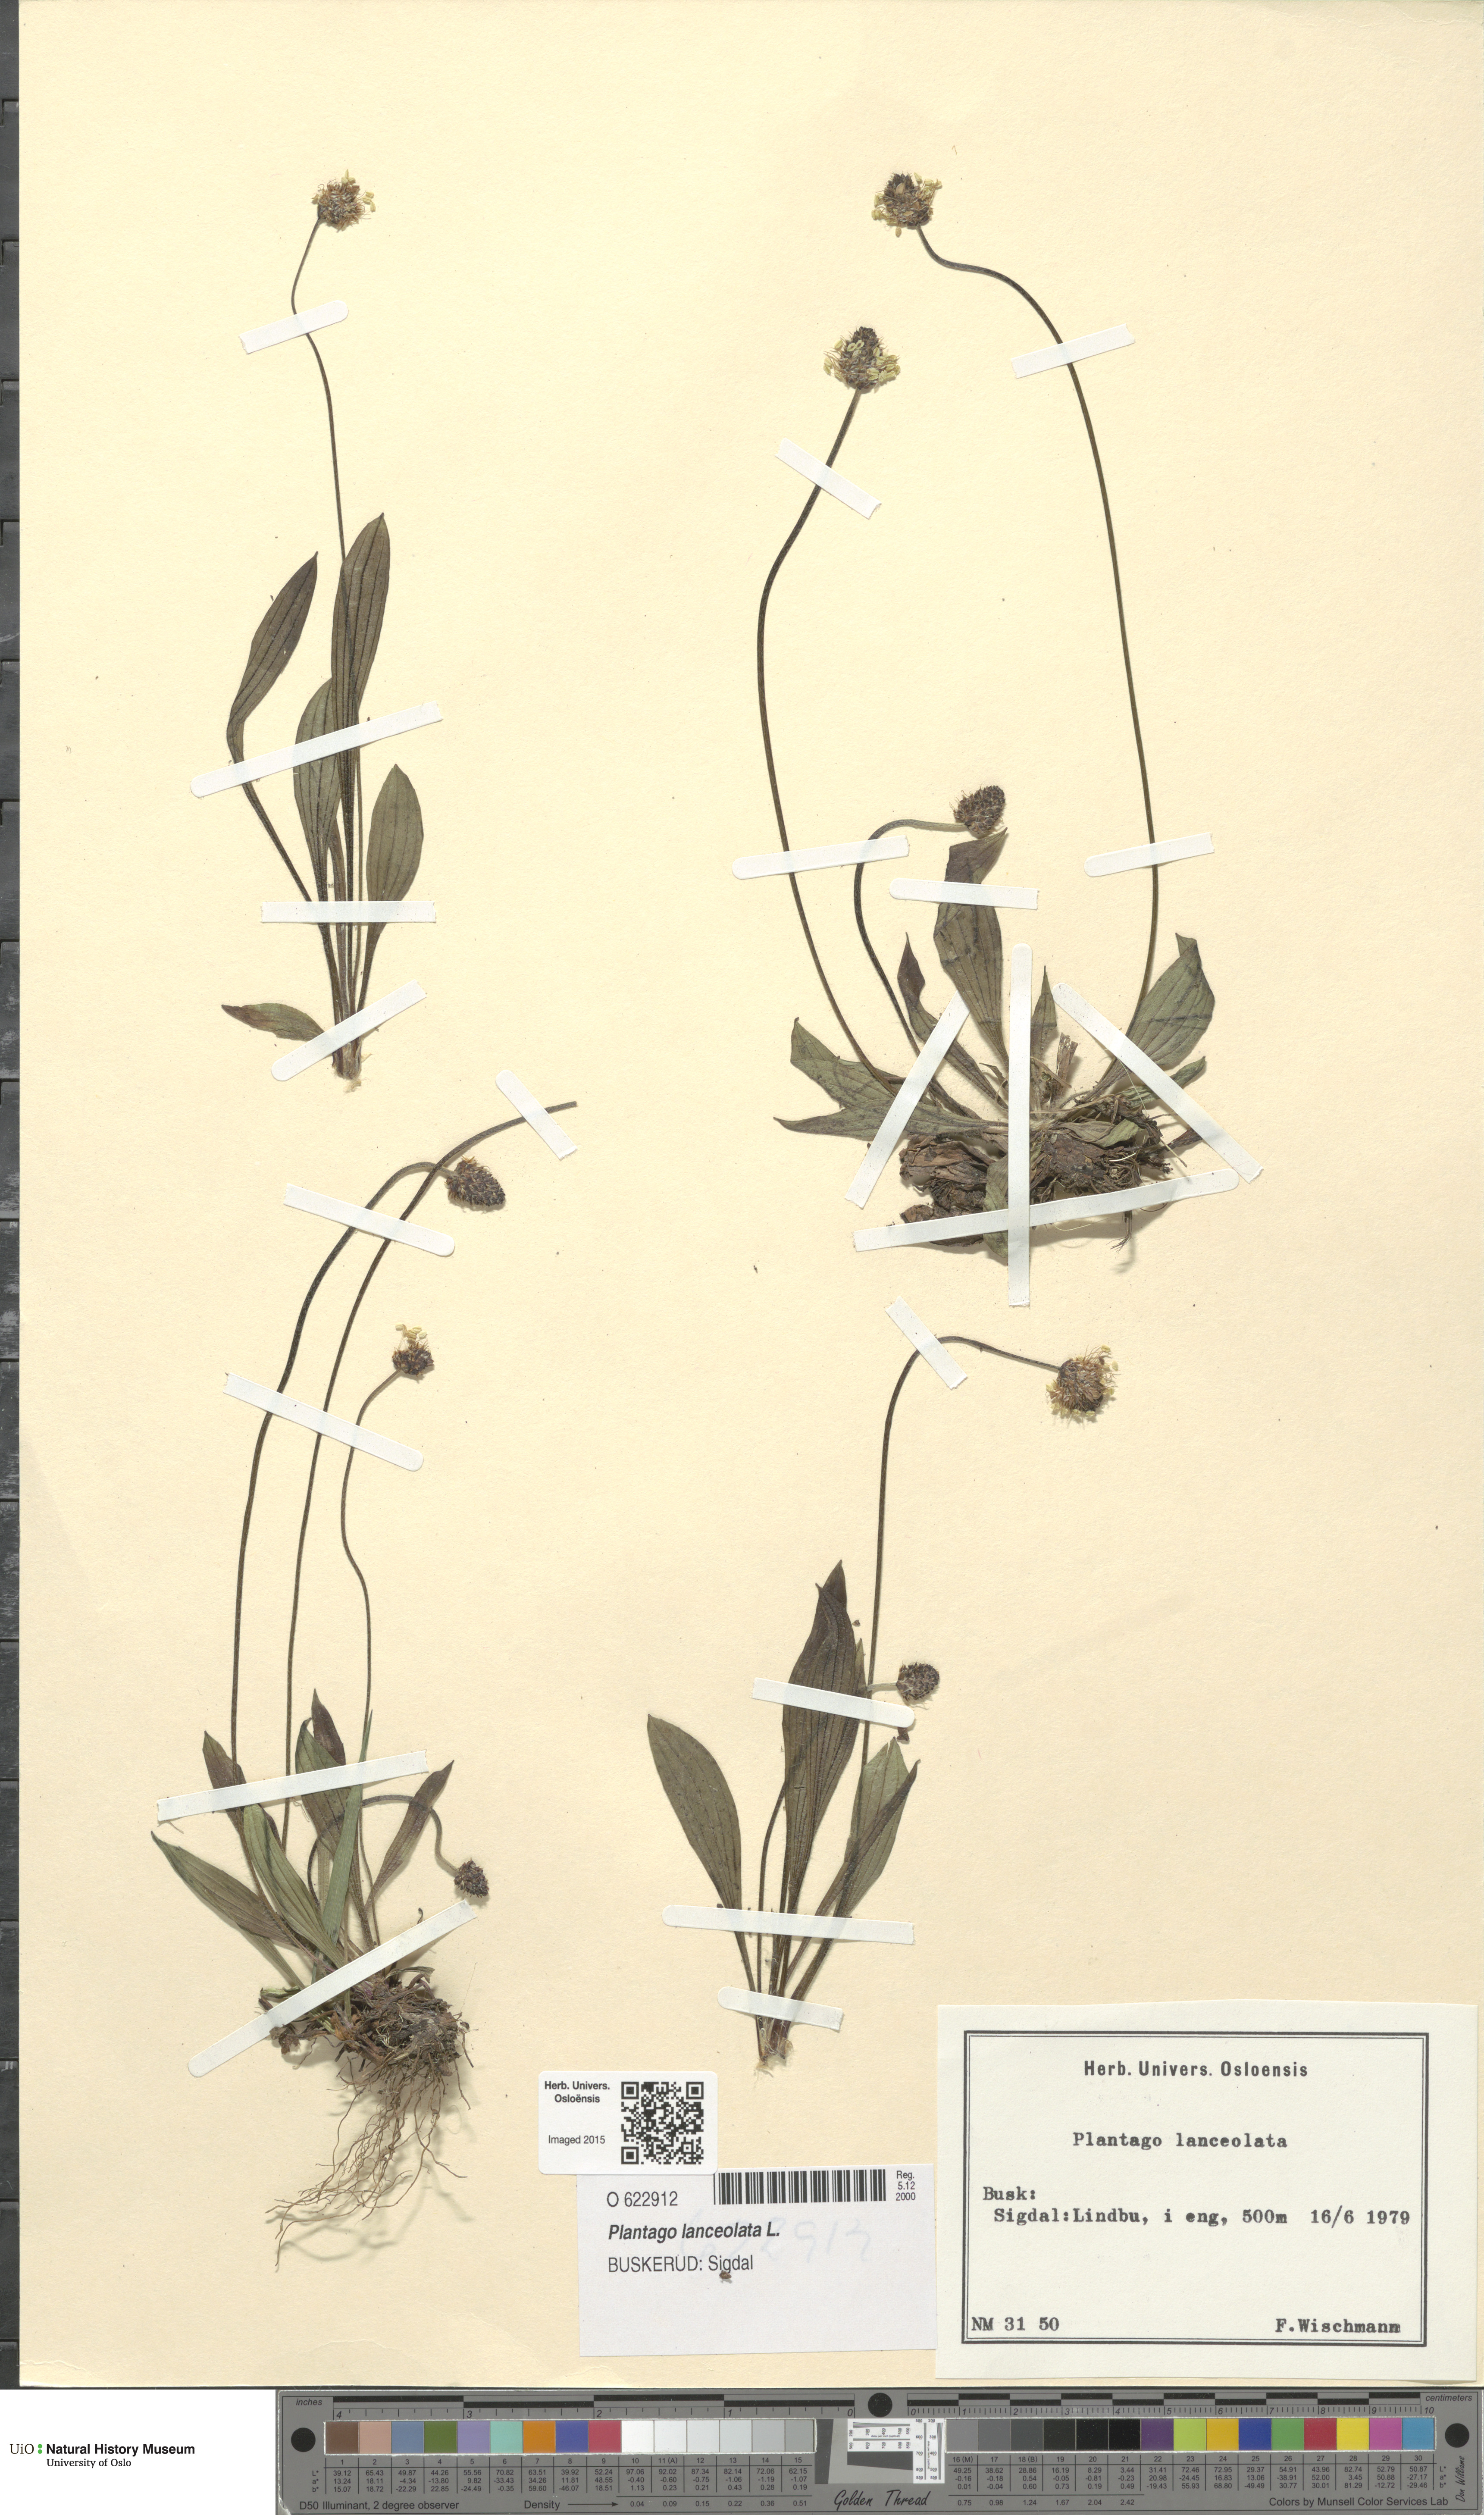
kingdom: Plantae
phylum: Tracheophyta
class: Magnoliopsida
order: Lamiales
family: Plantaginaceae
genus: Plantago
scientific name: Plantago lanceolata
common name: Ribwort plantain
